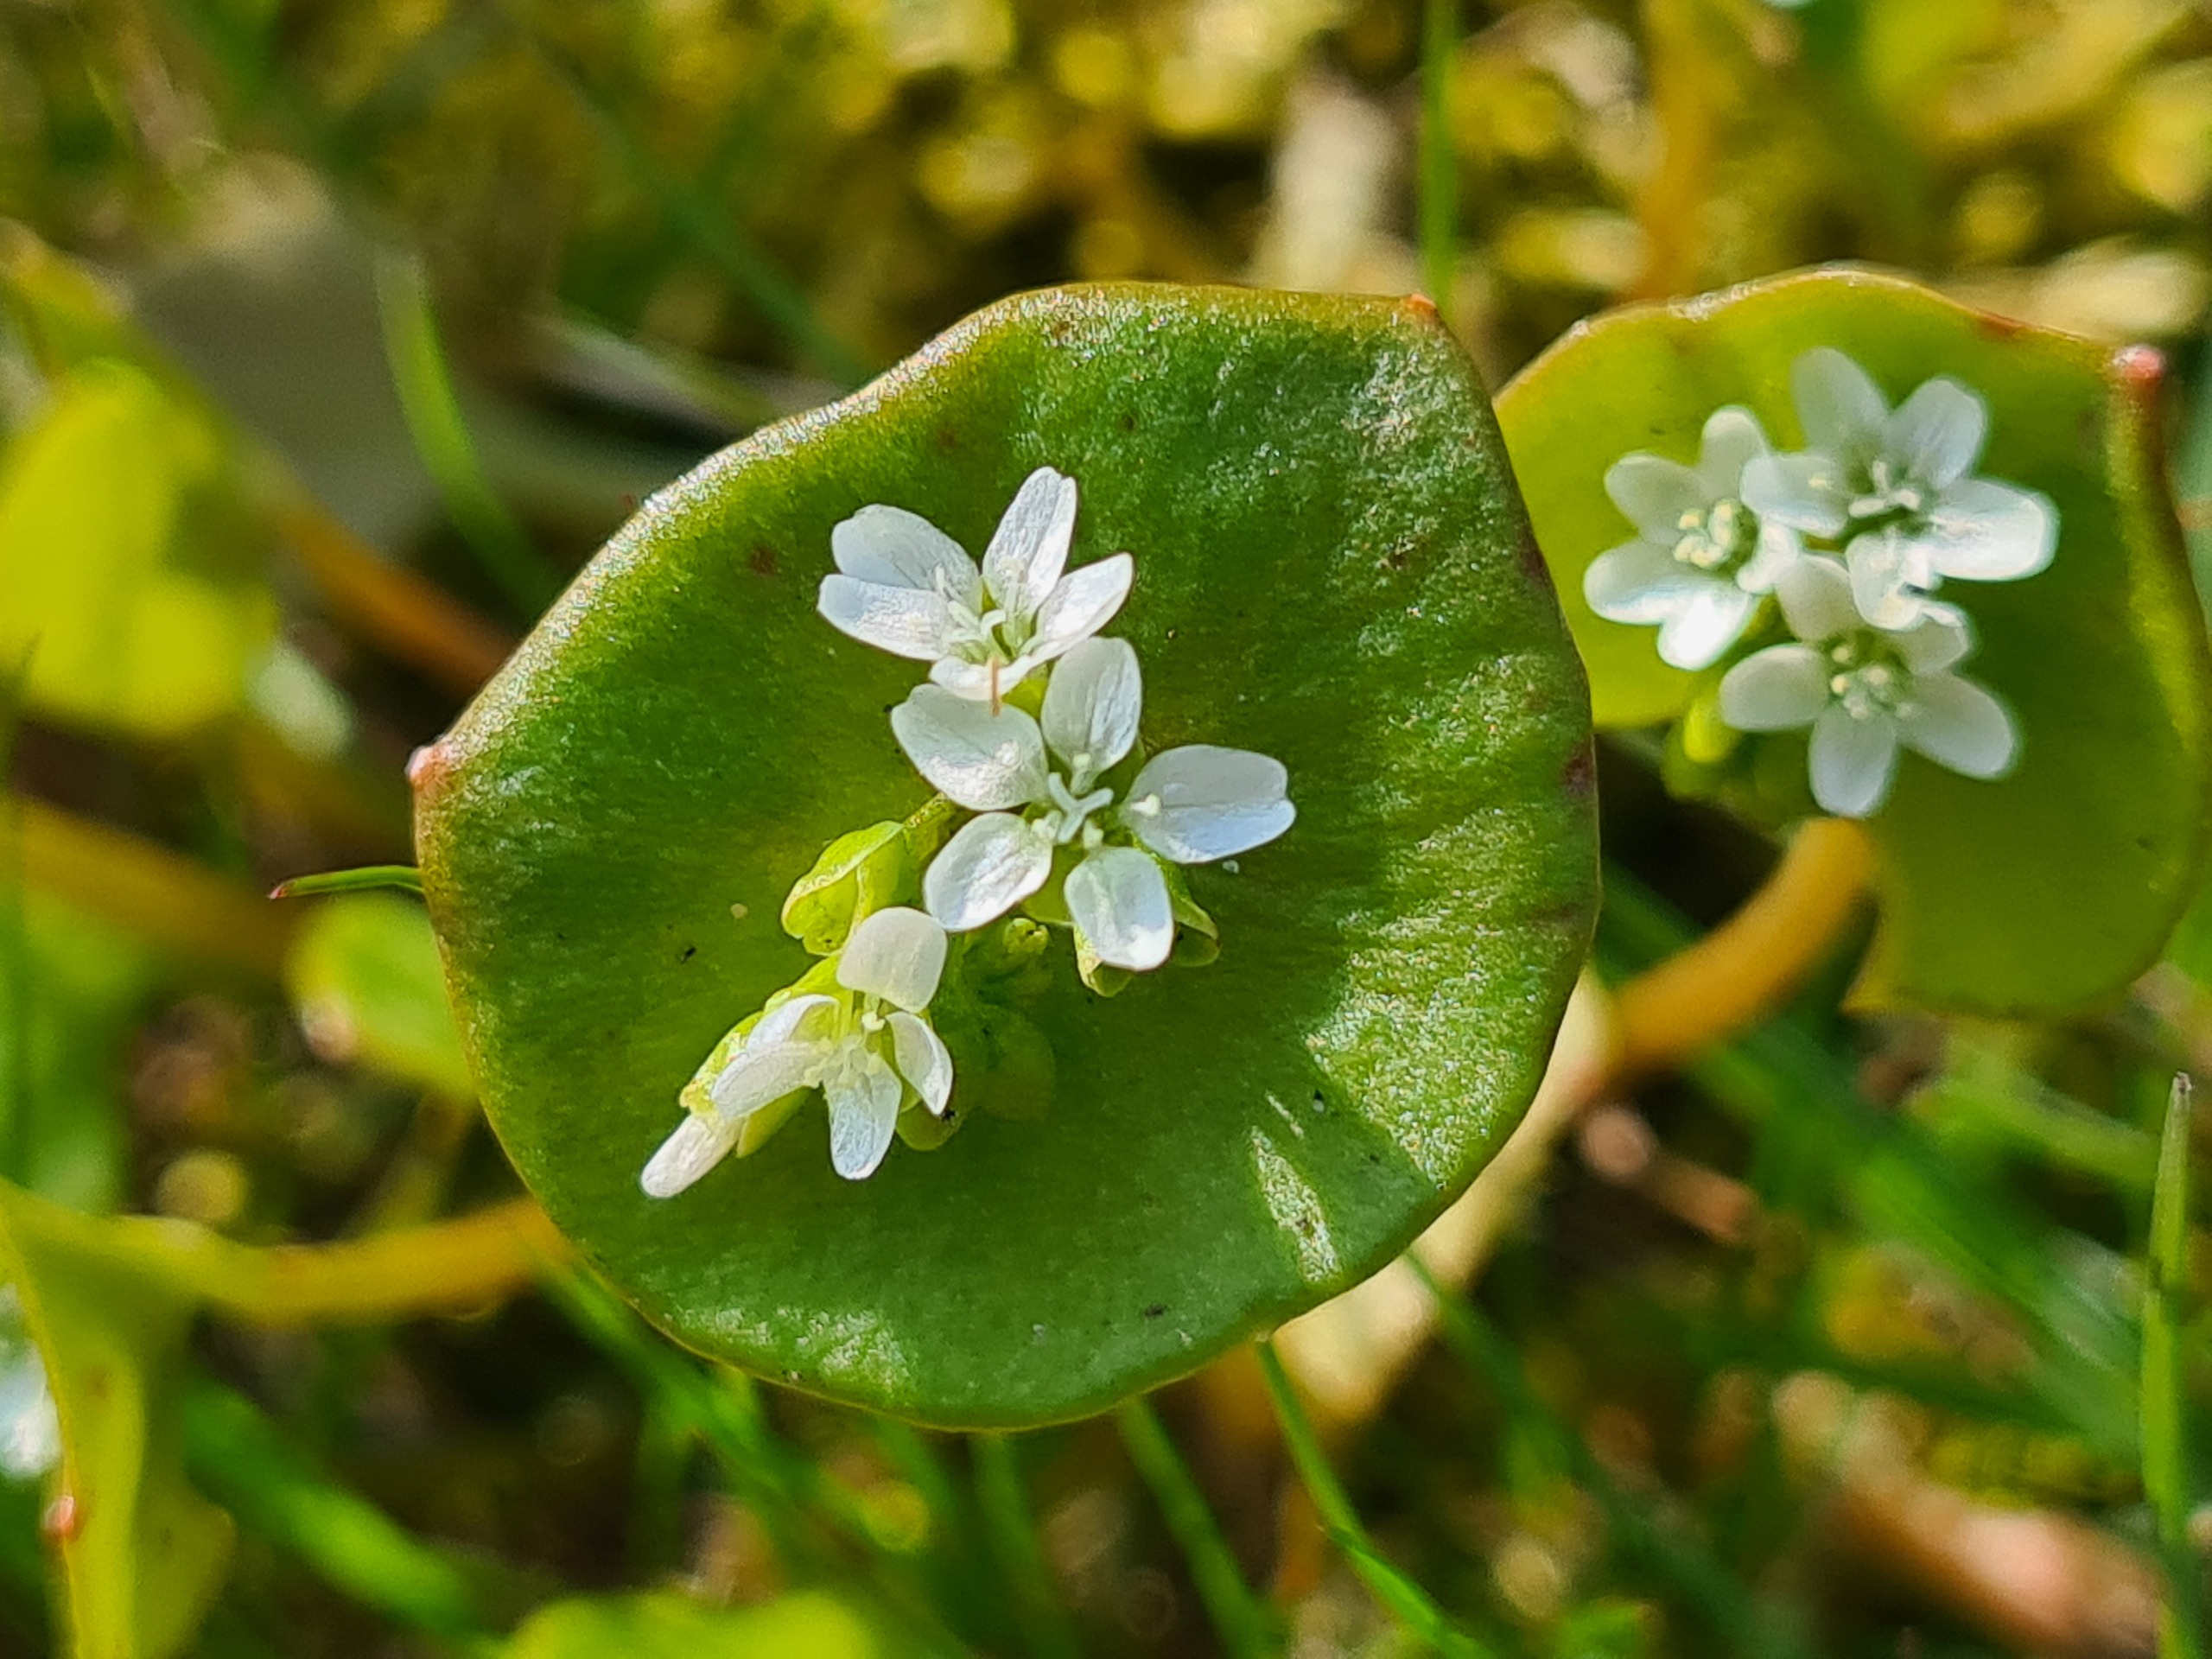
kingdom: Plantae
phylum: Tracheophyta
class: Magnoliopsida
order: Caryophyllales
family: Montiaceae
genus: Claytonia
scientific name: Claytonia perfoliata
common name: Spiselig vinterportulak
